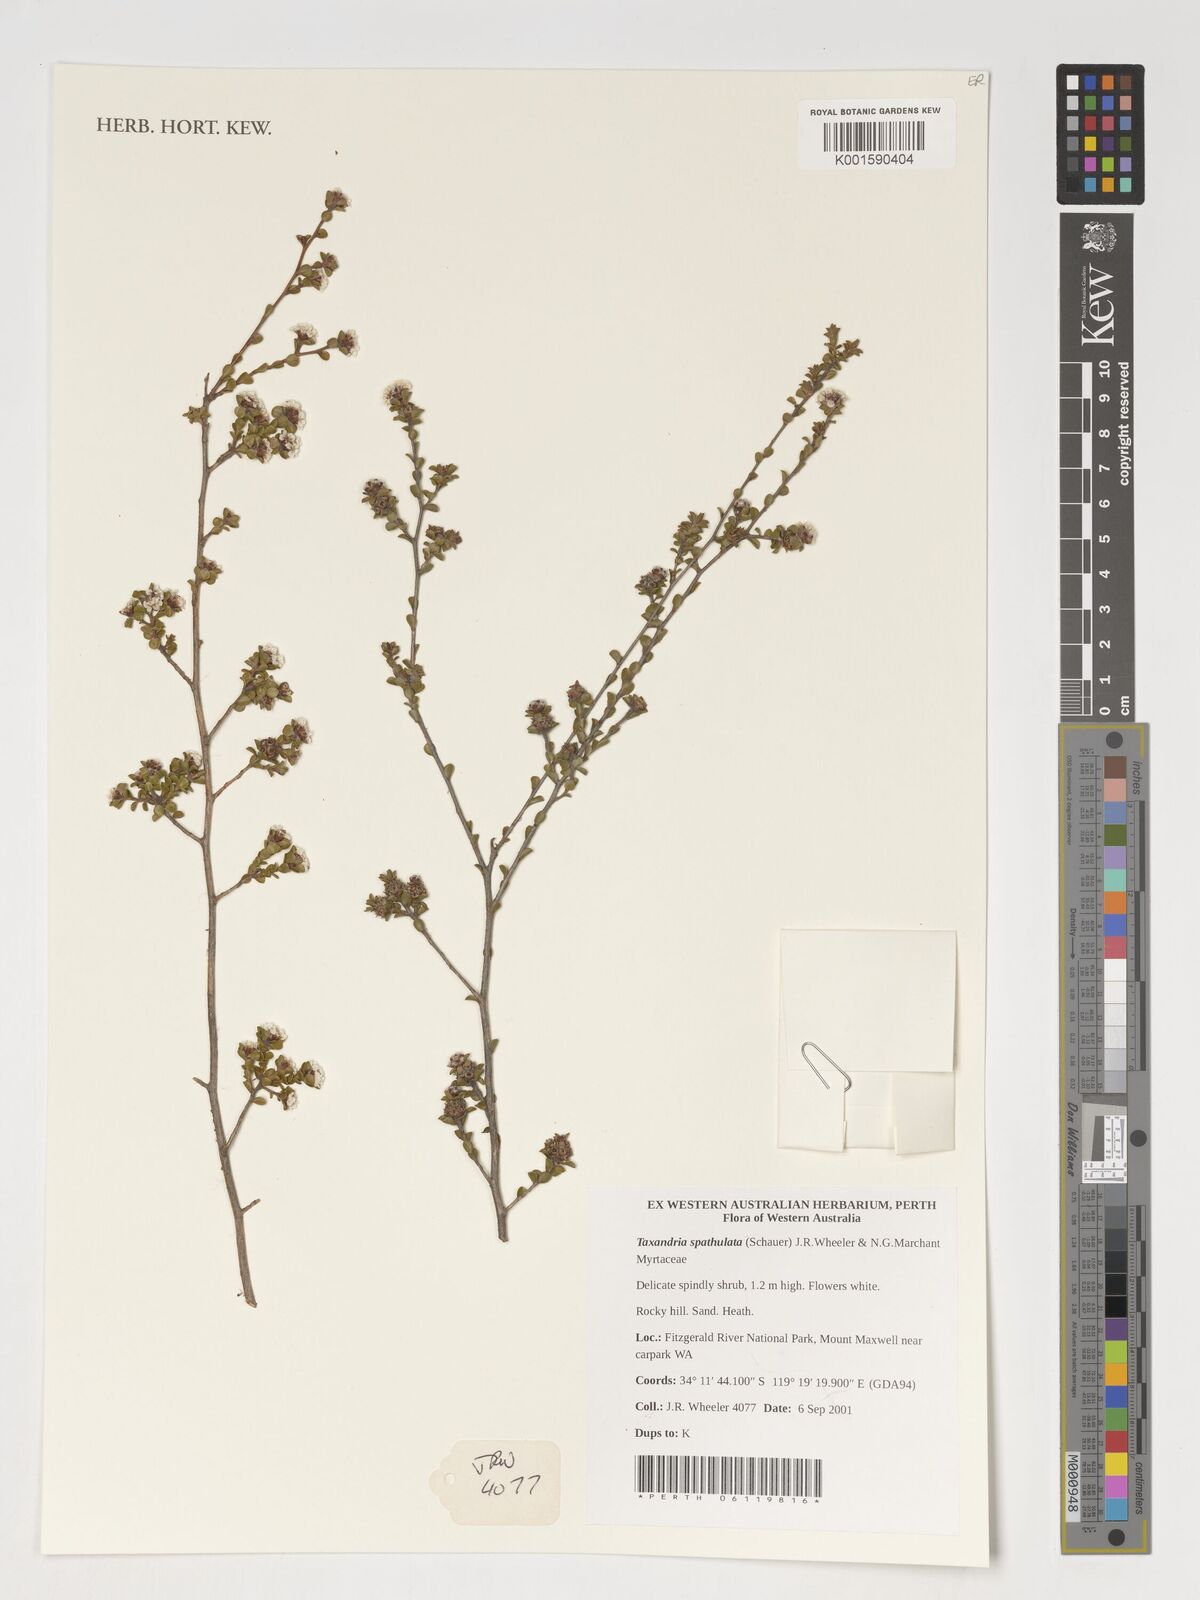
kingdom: Plantae
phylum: Tracheophyta
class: Magnoliopsida
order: Myrtales
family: Myrtaceae
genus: Taxandria
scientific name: Taxandria spathulata
